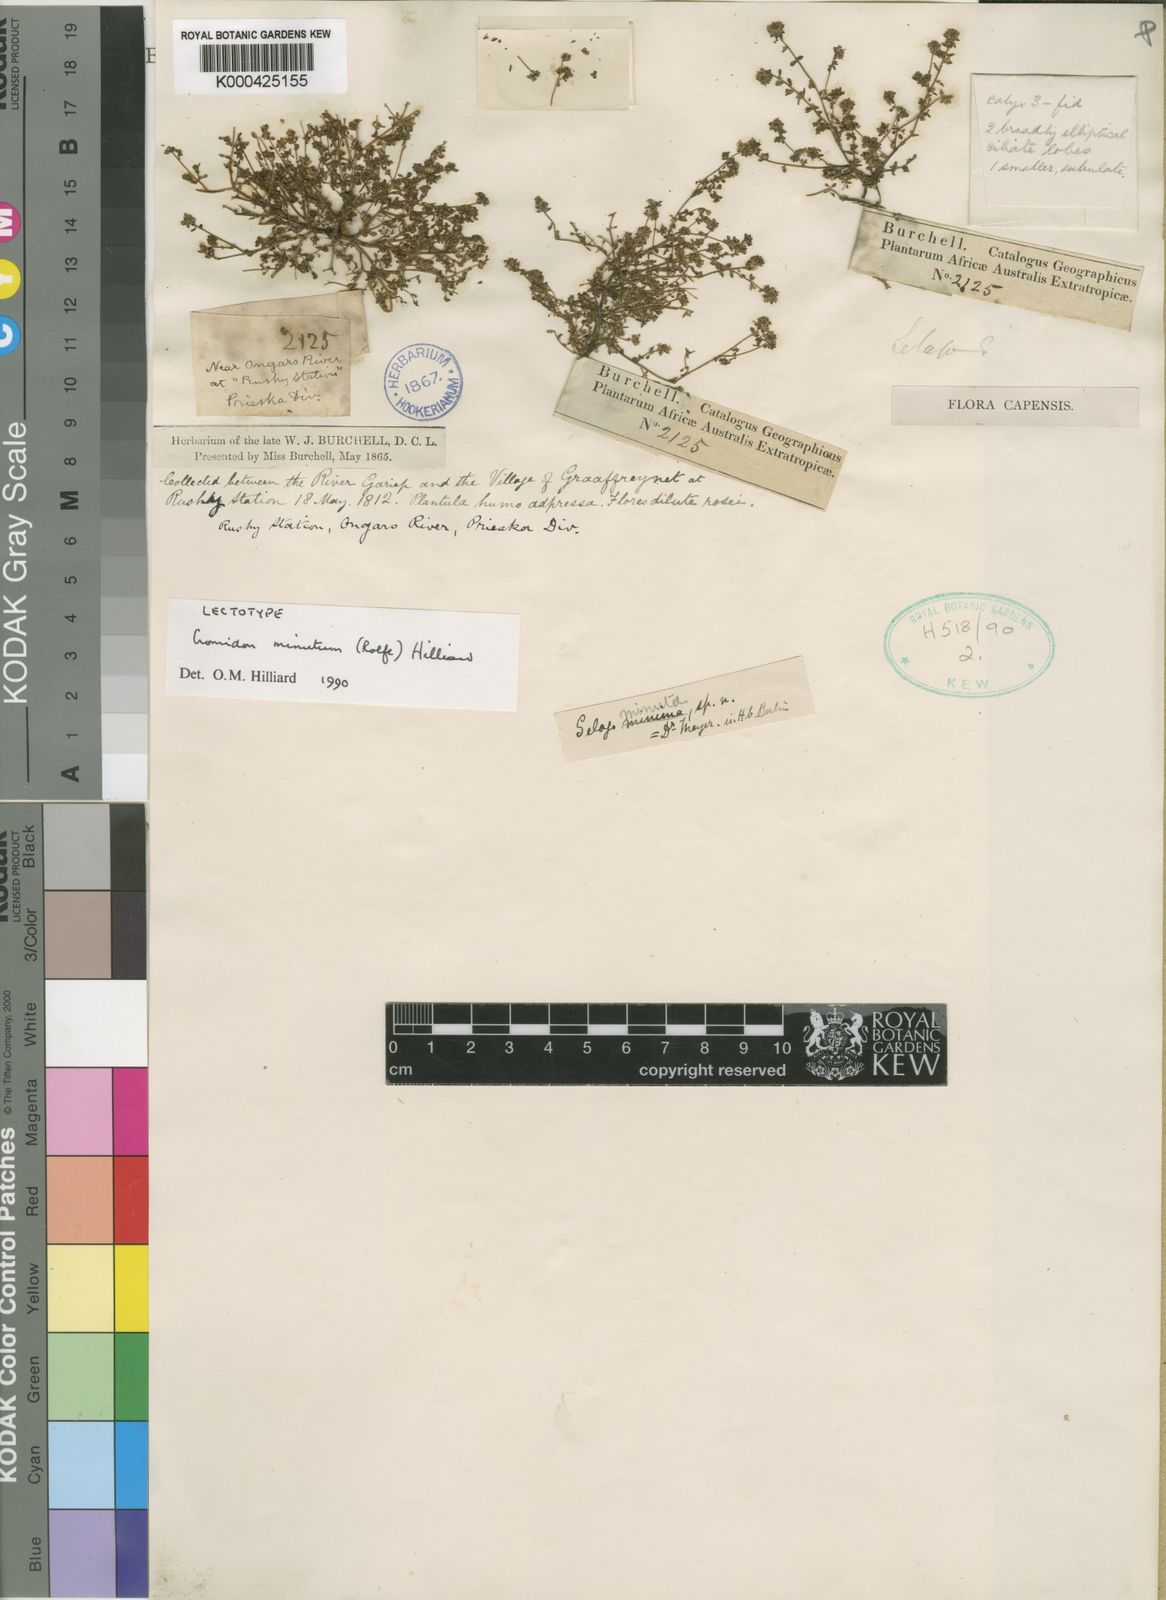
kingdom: Plantae
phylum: Tracheophyta
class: Magnoliopsida
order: Lamiales
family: Scrophulariaceae
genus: Cromidon
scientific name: Cromidon minutum
